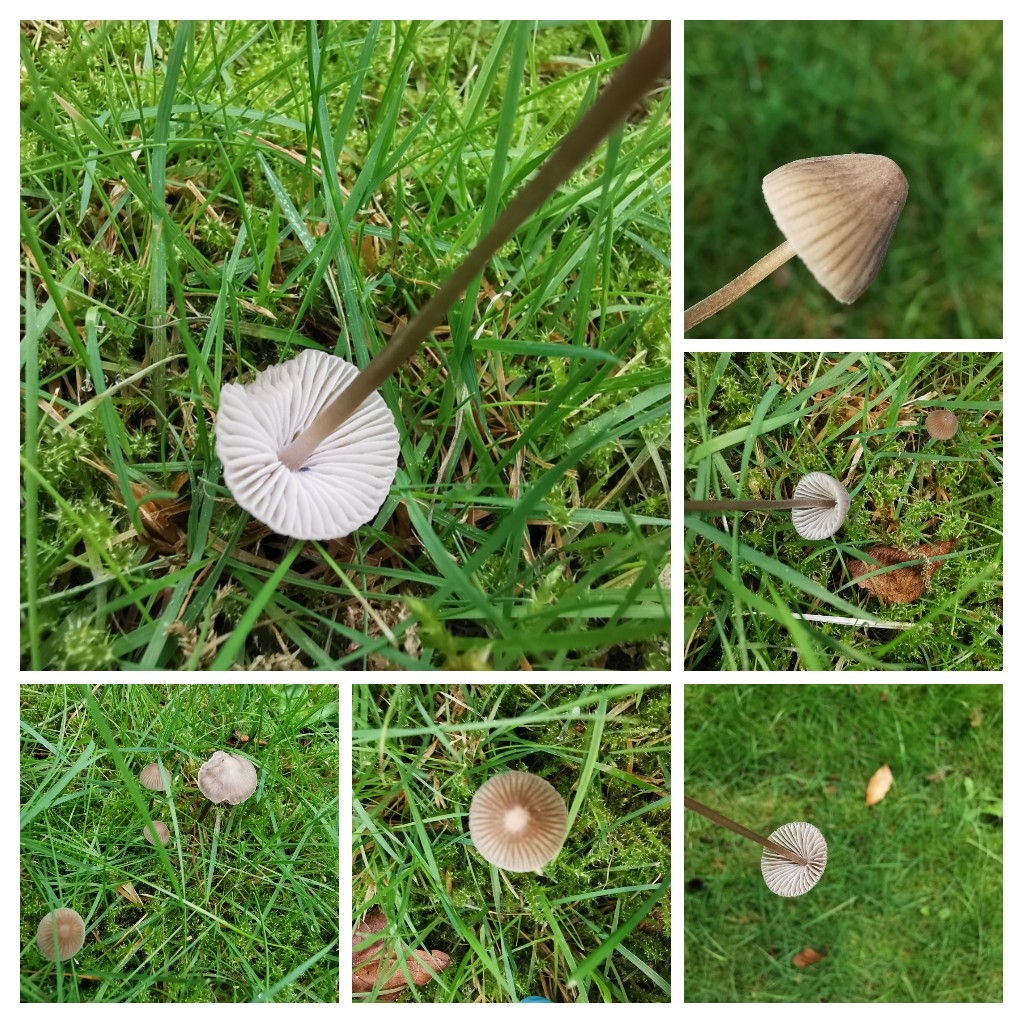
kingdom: Fungi
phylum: Basidiomycota
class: Agaricomycetes
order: Agaricales
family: Mycenaceae
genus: Mycena
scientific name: Mycena leptocephala
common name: klor-huesvamp
